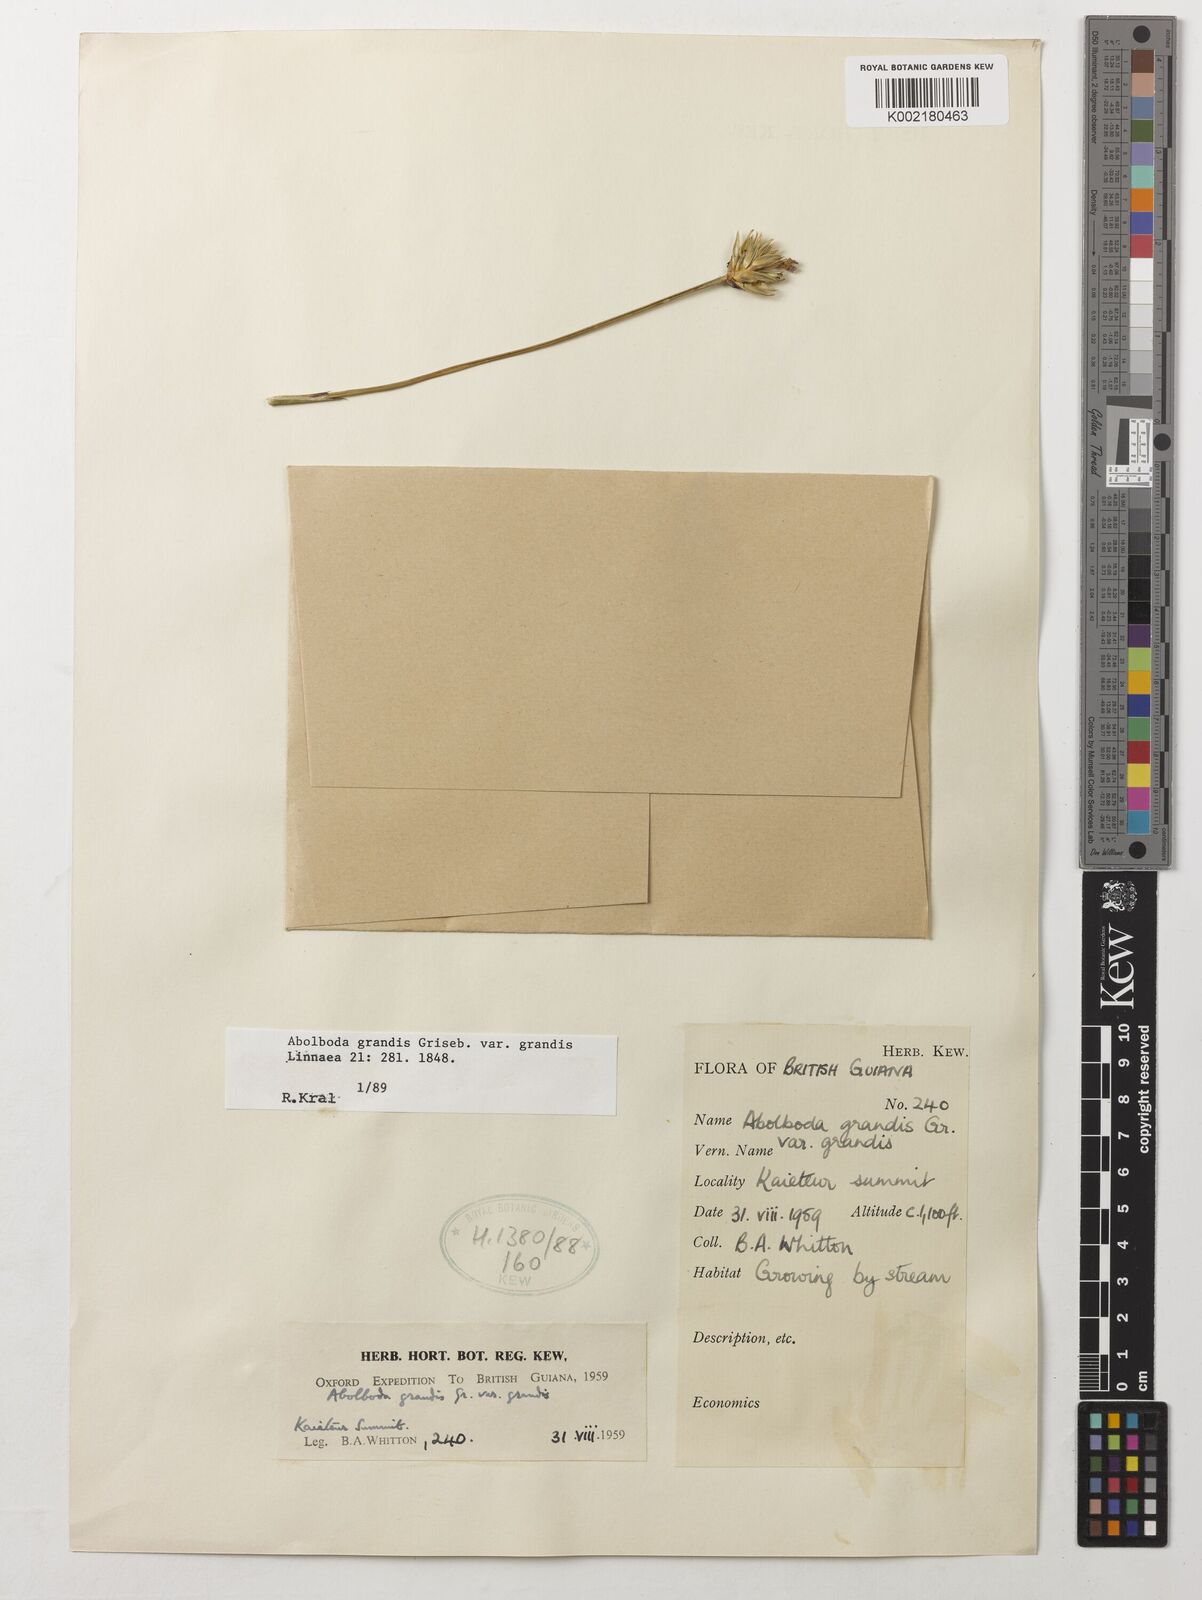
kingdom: Plantae
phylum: Tracheophyta
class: Liliopsida
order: Poales
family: Xyridaceae
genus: Abolboda
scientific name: Abolboda grandis
